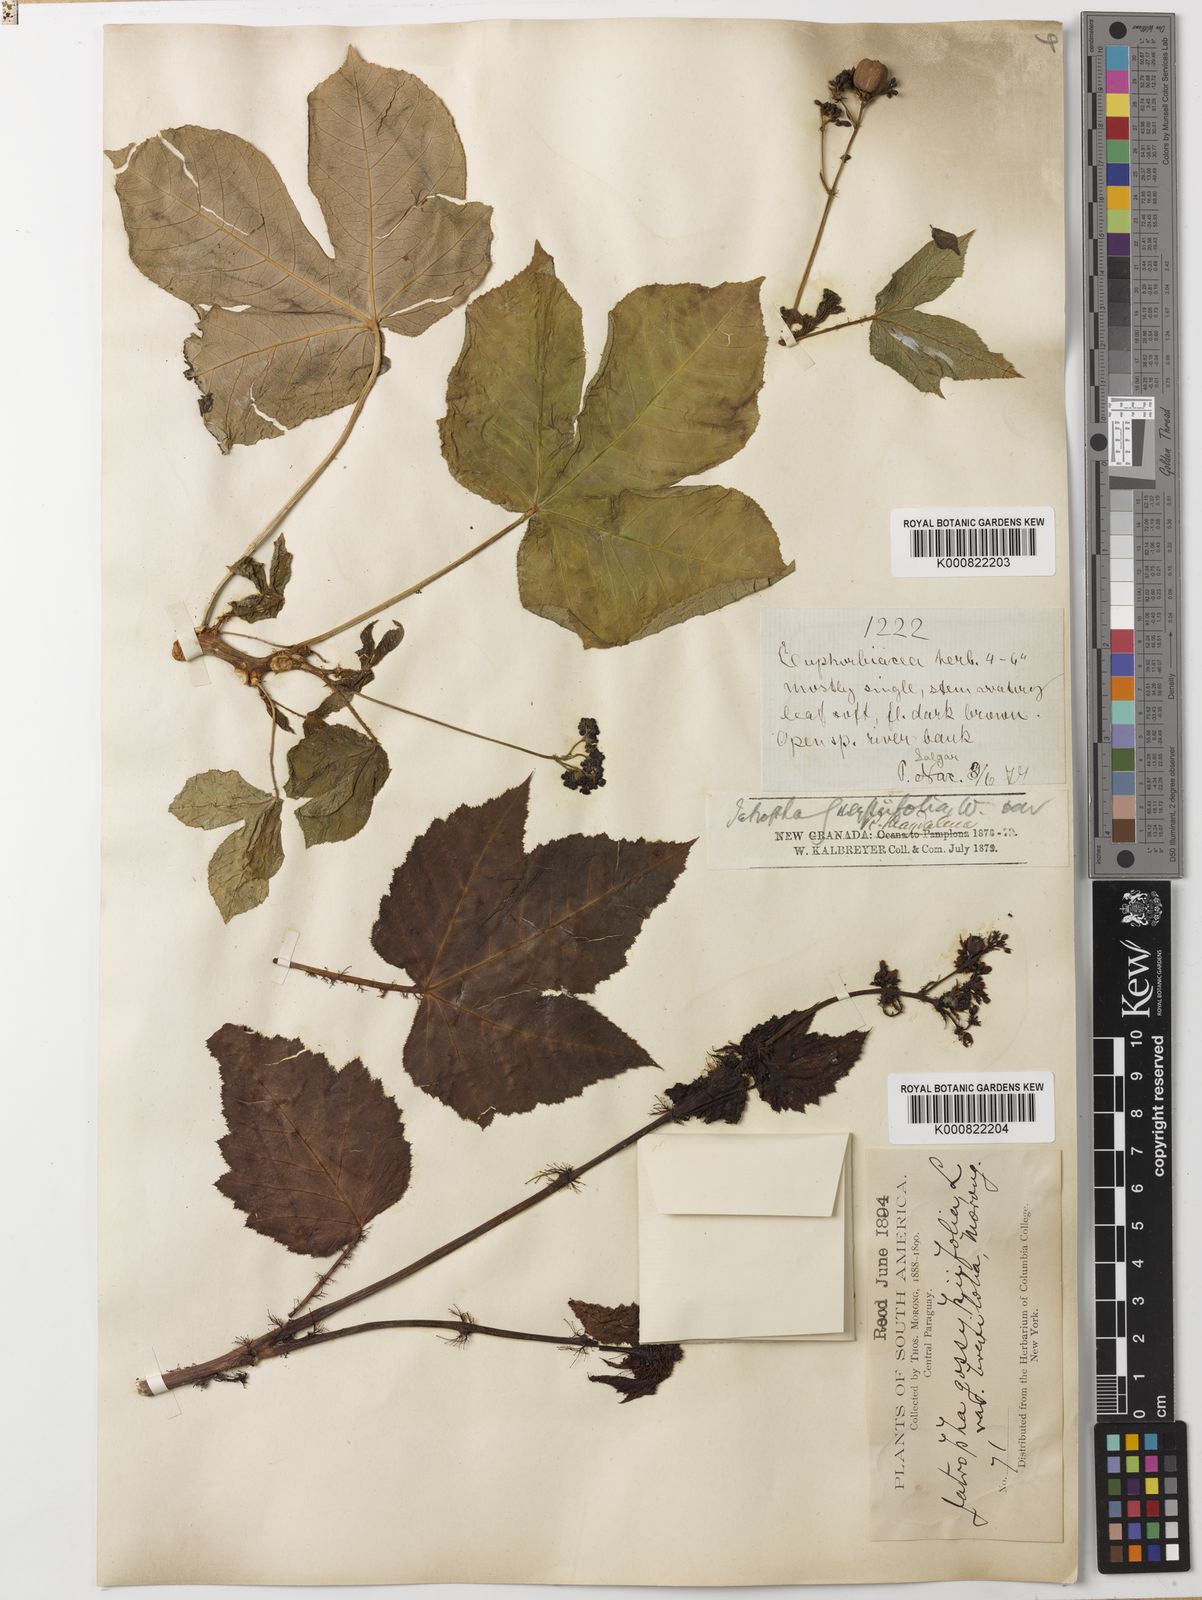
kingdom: Plantae
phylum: Tracheophyta
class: Magnoliopsida
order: Malpighiales
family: Euphorbiaceae
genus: Jatropha
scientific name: Jatropha gossypiifolia
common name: Bellyache bush
